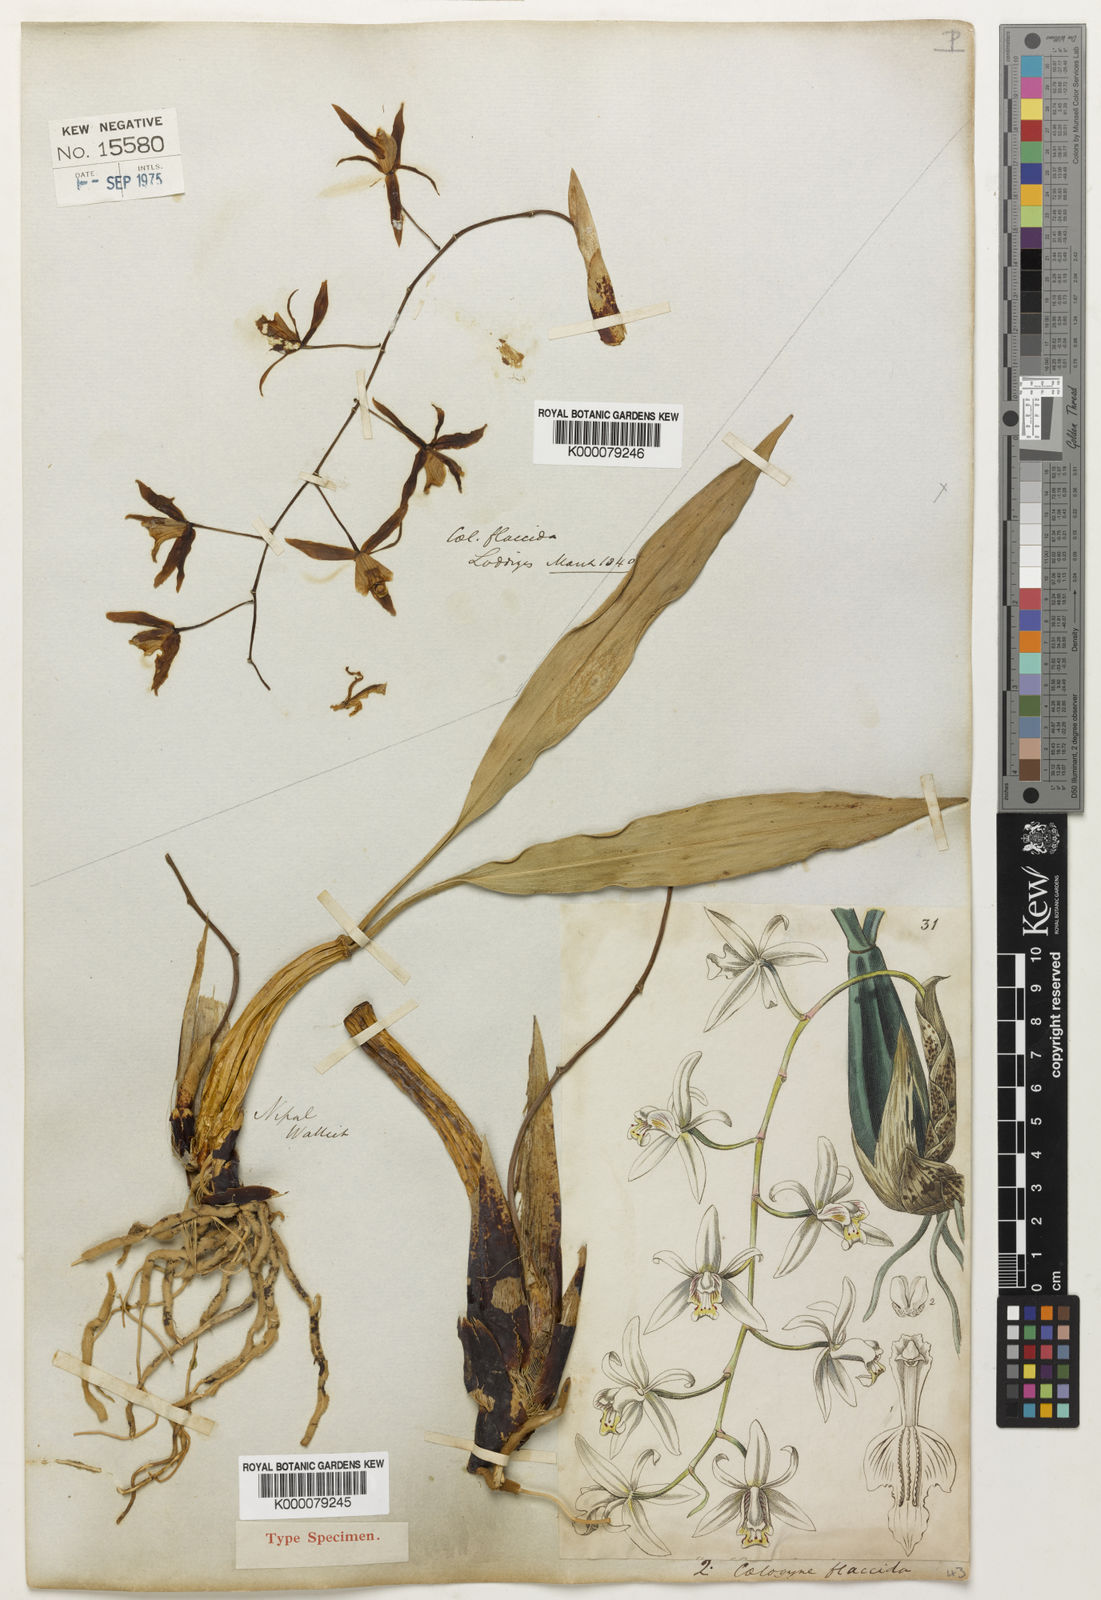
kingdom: Plantae
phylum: Tracheophyta
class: Liliopsida
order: Asparagales
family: Orchidaceae
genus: Coelogyne
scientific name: Coelogyne flaccida
